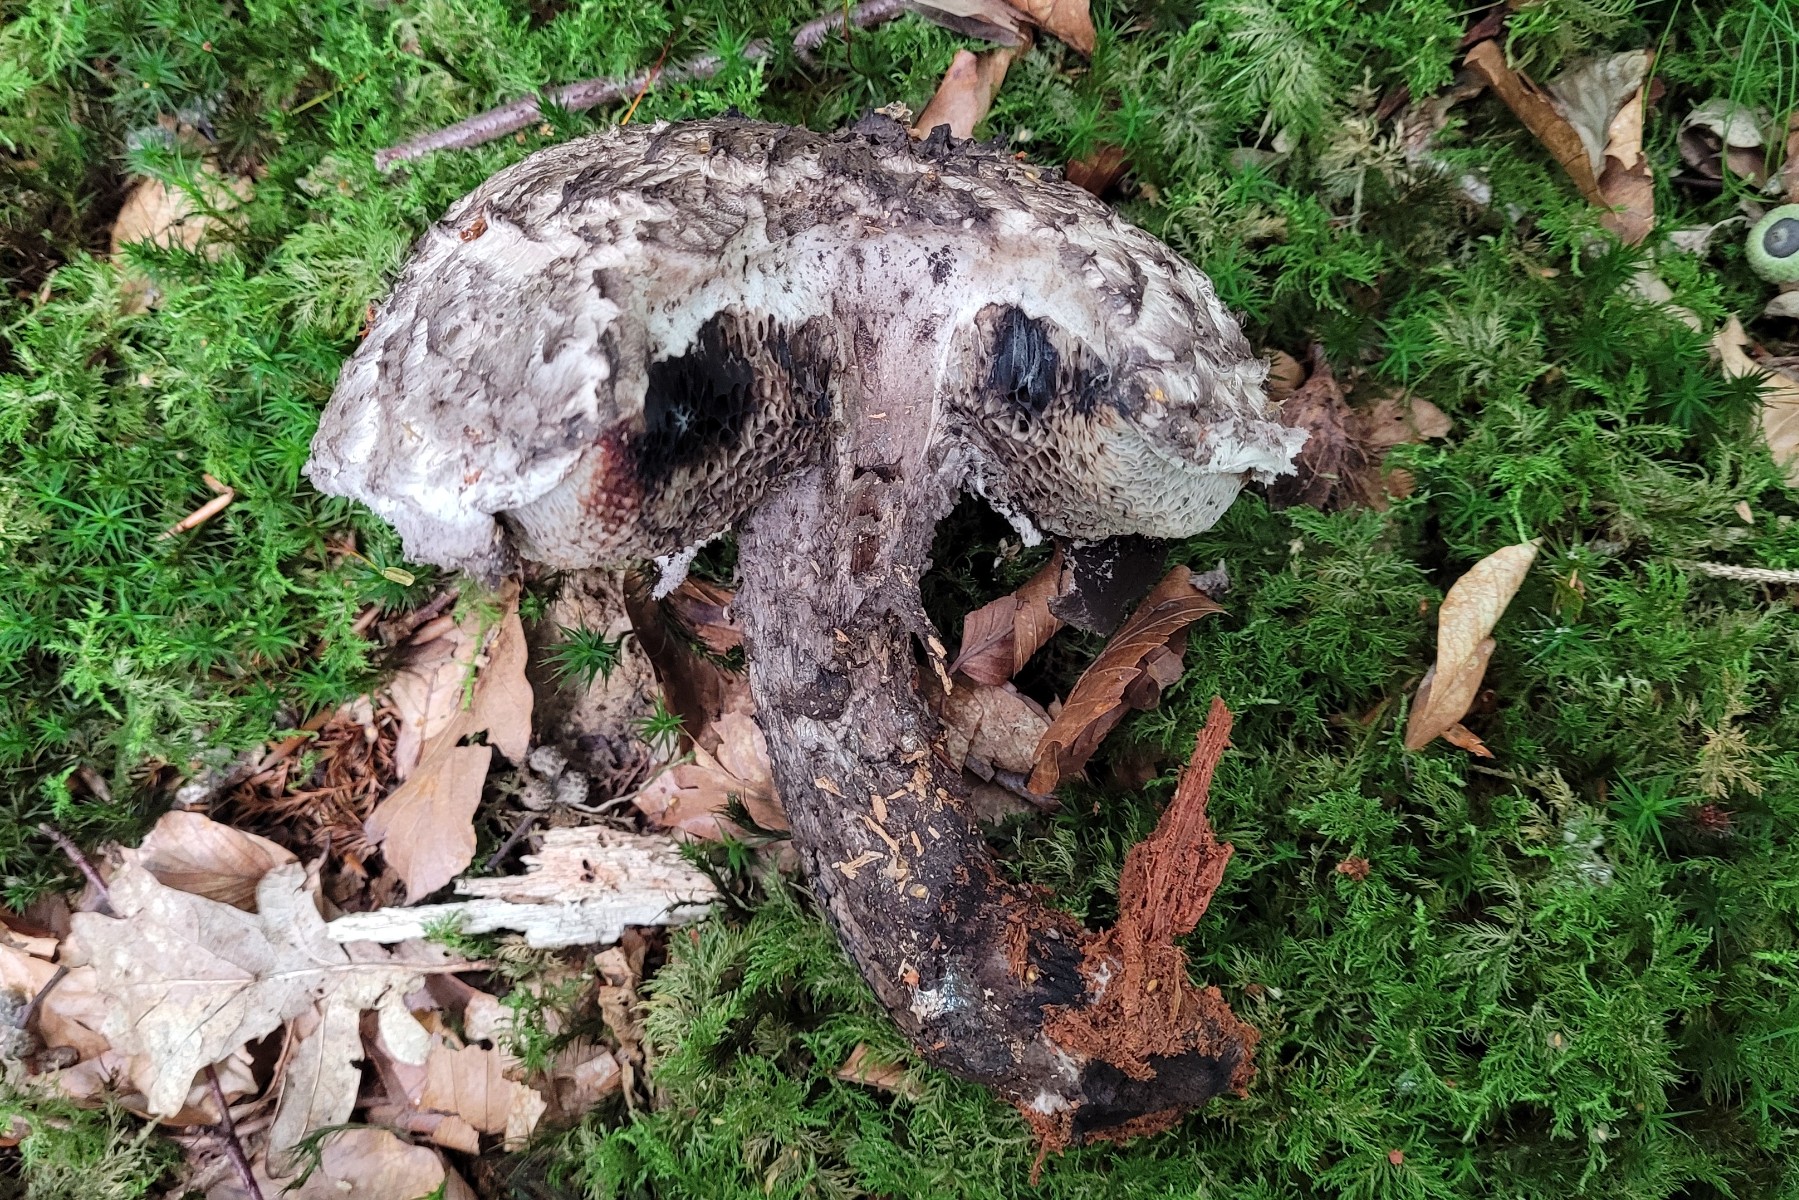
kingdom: Fungi
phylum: Basidiomycota
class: Agaricomycetes
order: Boletales
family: Boletaceae
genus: Strobilomyces
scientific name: Strobilomyces strobilaceus
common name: koglerørhat
